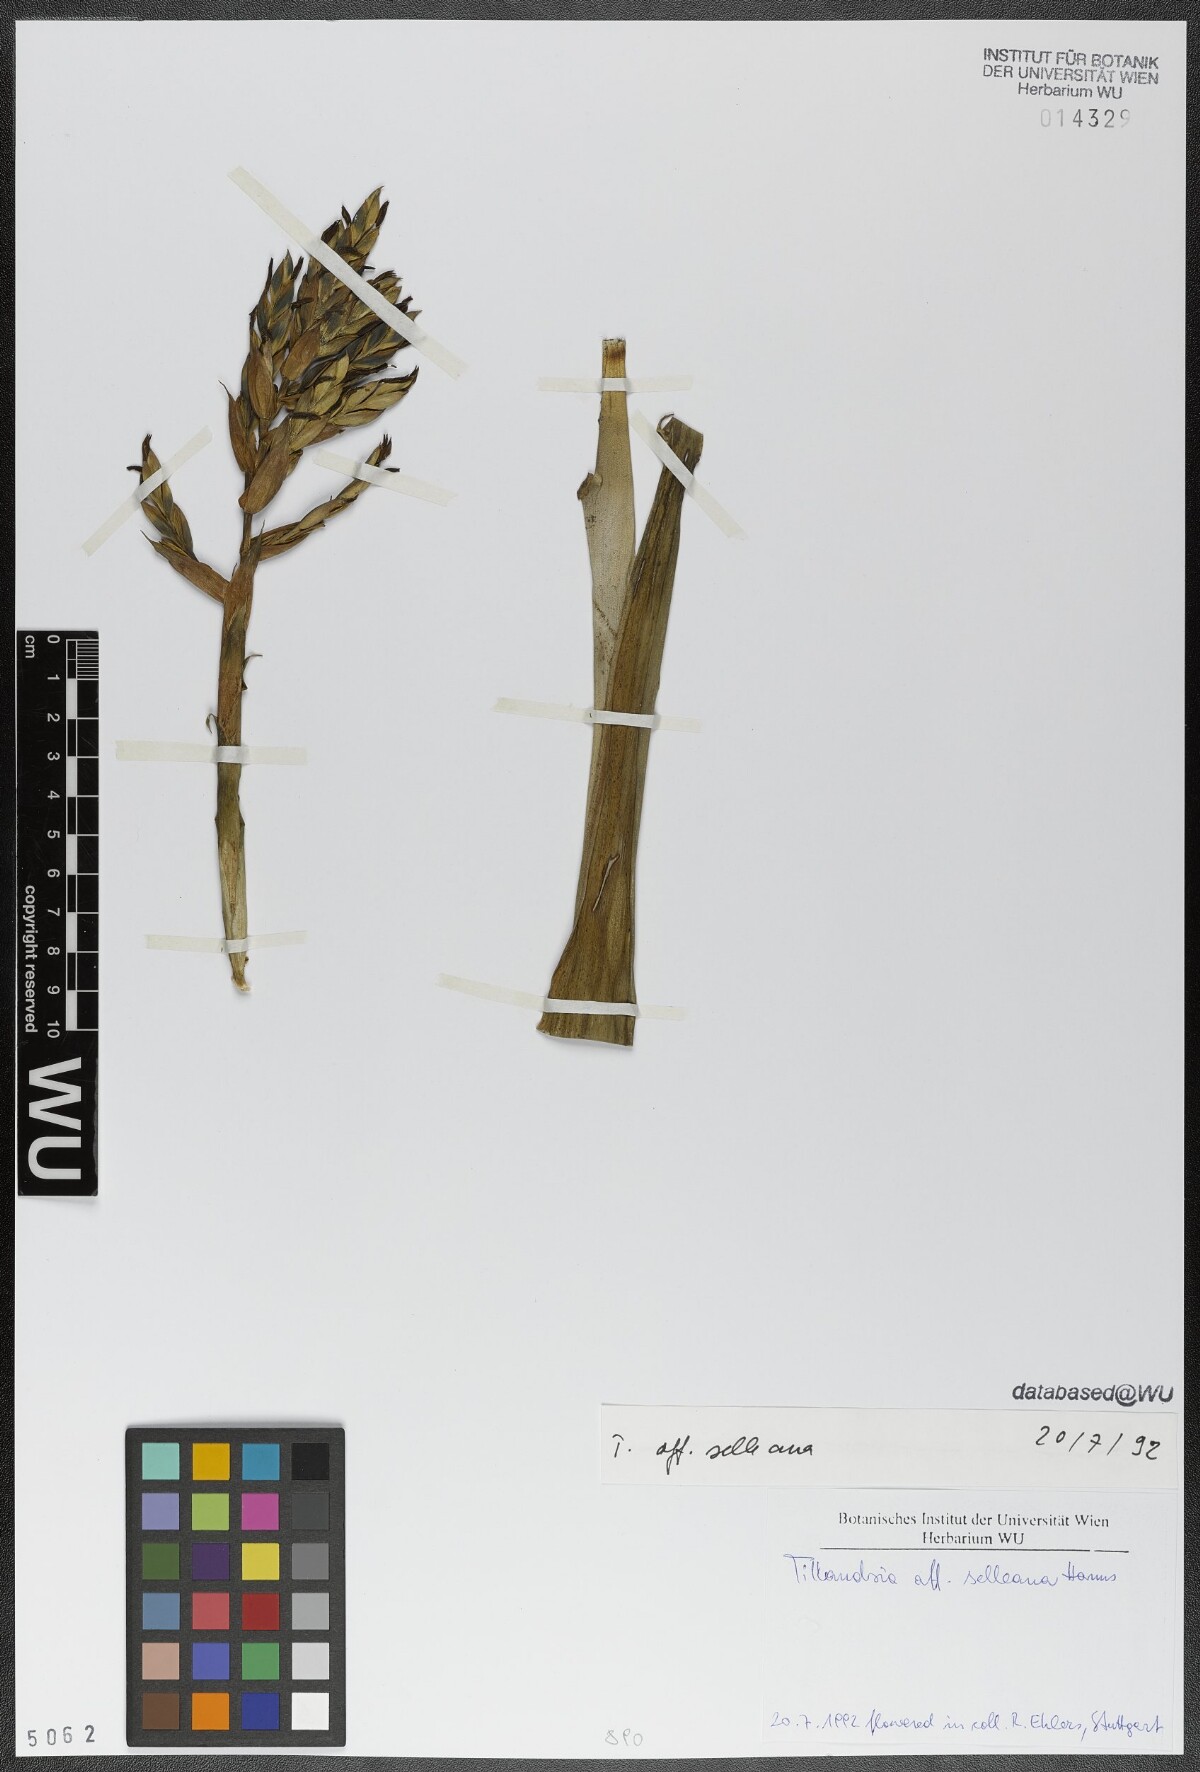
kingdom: Plantae
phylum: Tracheophyta
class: Liliopsida
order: Poales
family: Bromeliaceae
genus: Tillandsia
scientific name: Tillandsia selleana
